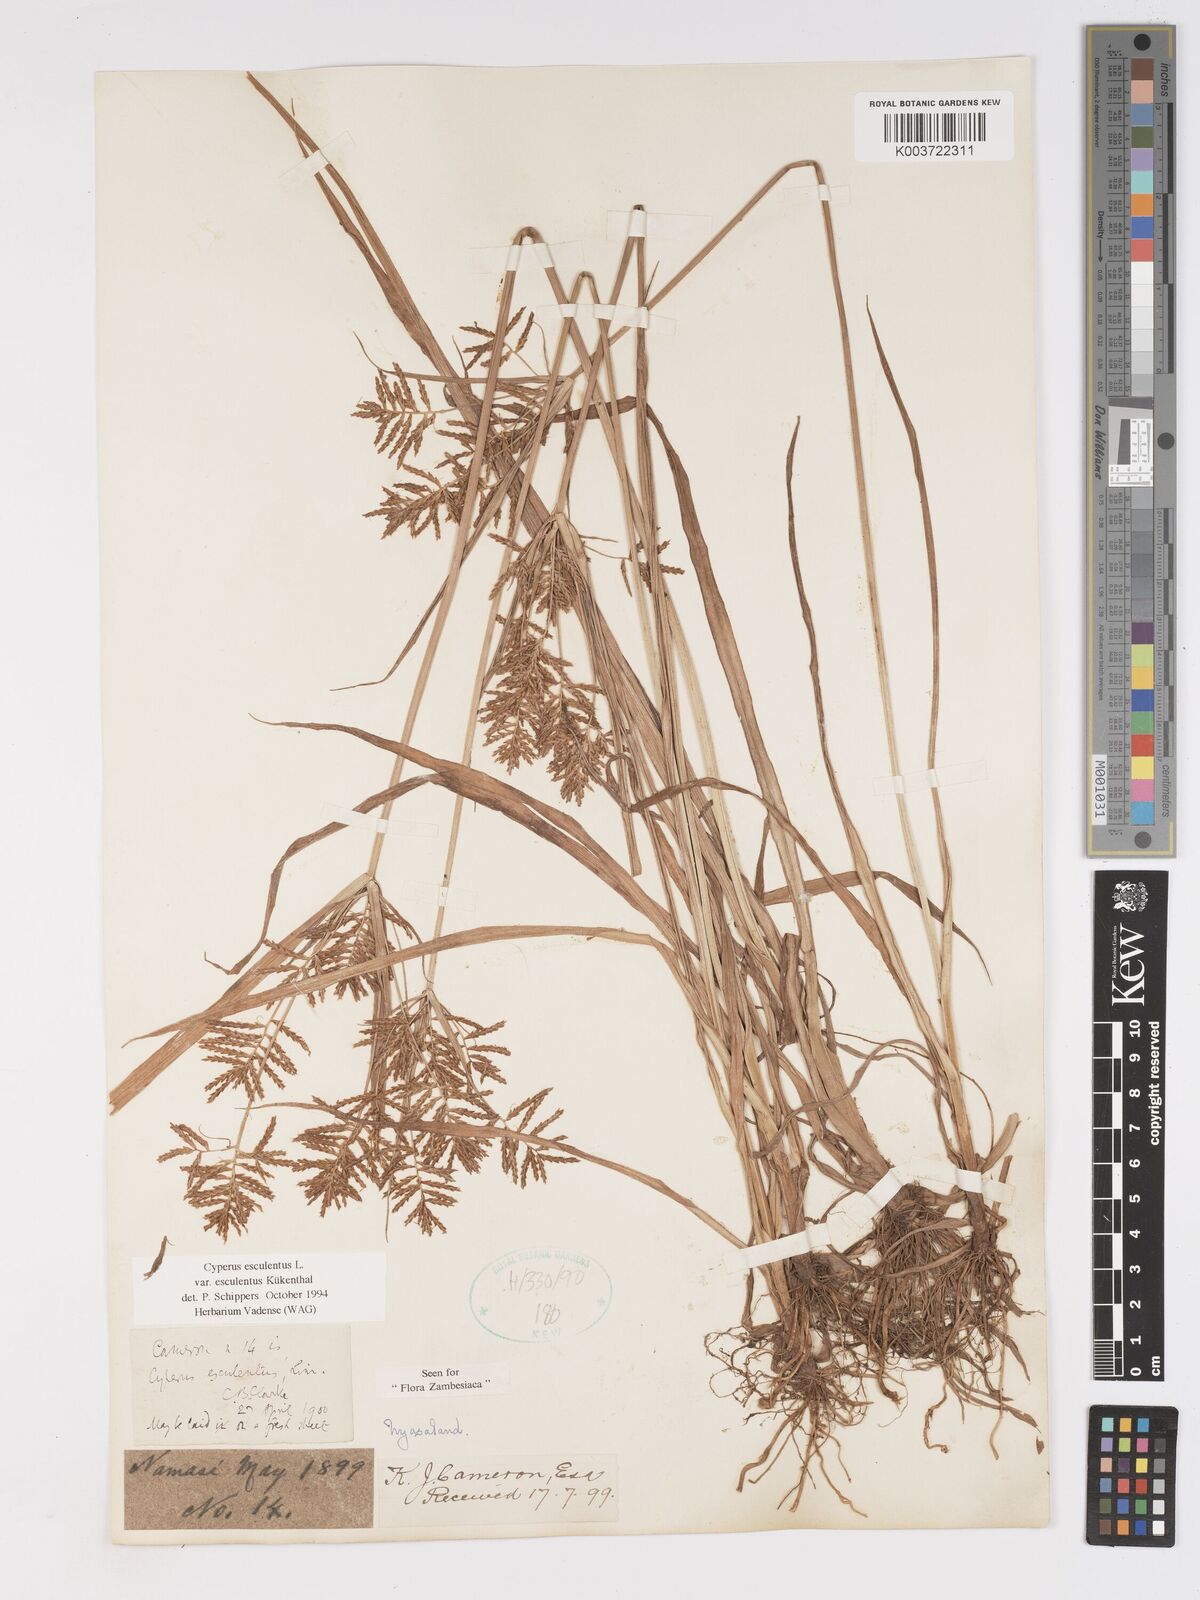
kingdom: Plantae
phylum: Tracheophyta
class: Liliopsida
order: Poales
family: Cyperaceae
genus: Cyperus
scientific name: Cyperus esculentus
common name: Yellow nutsedge
